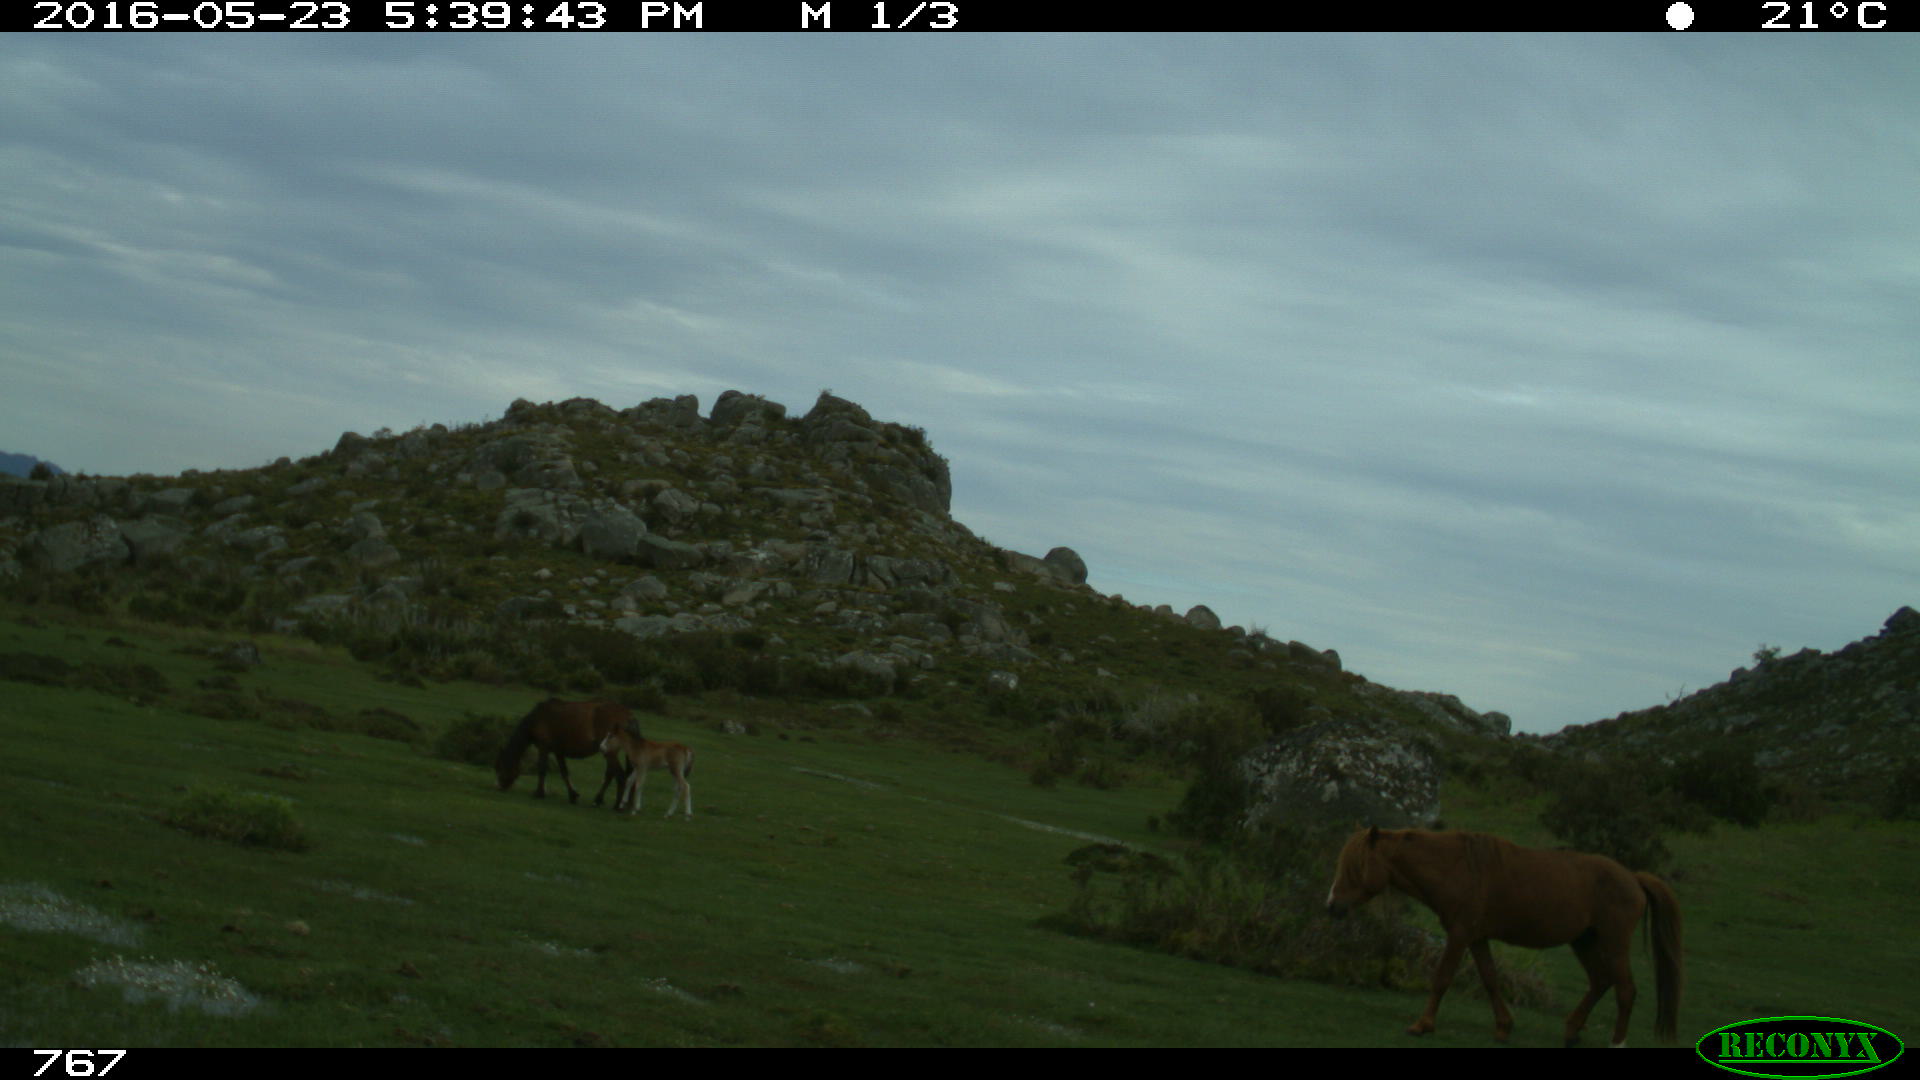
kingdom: Animalia
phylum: Chordata
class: Mammalia
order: Perissodactyla
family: Equidae
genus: Equus
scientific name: Equus caballus
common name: Horse
